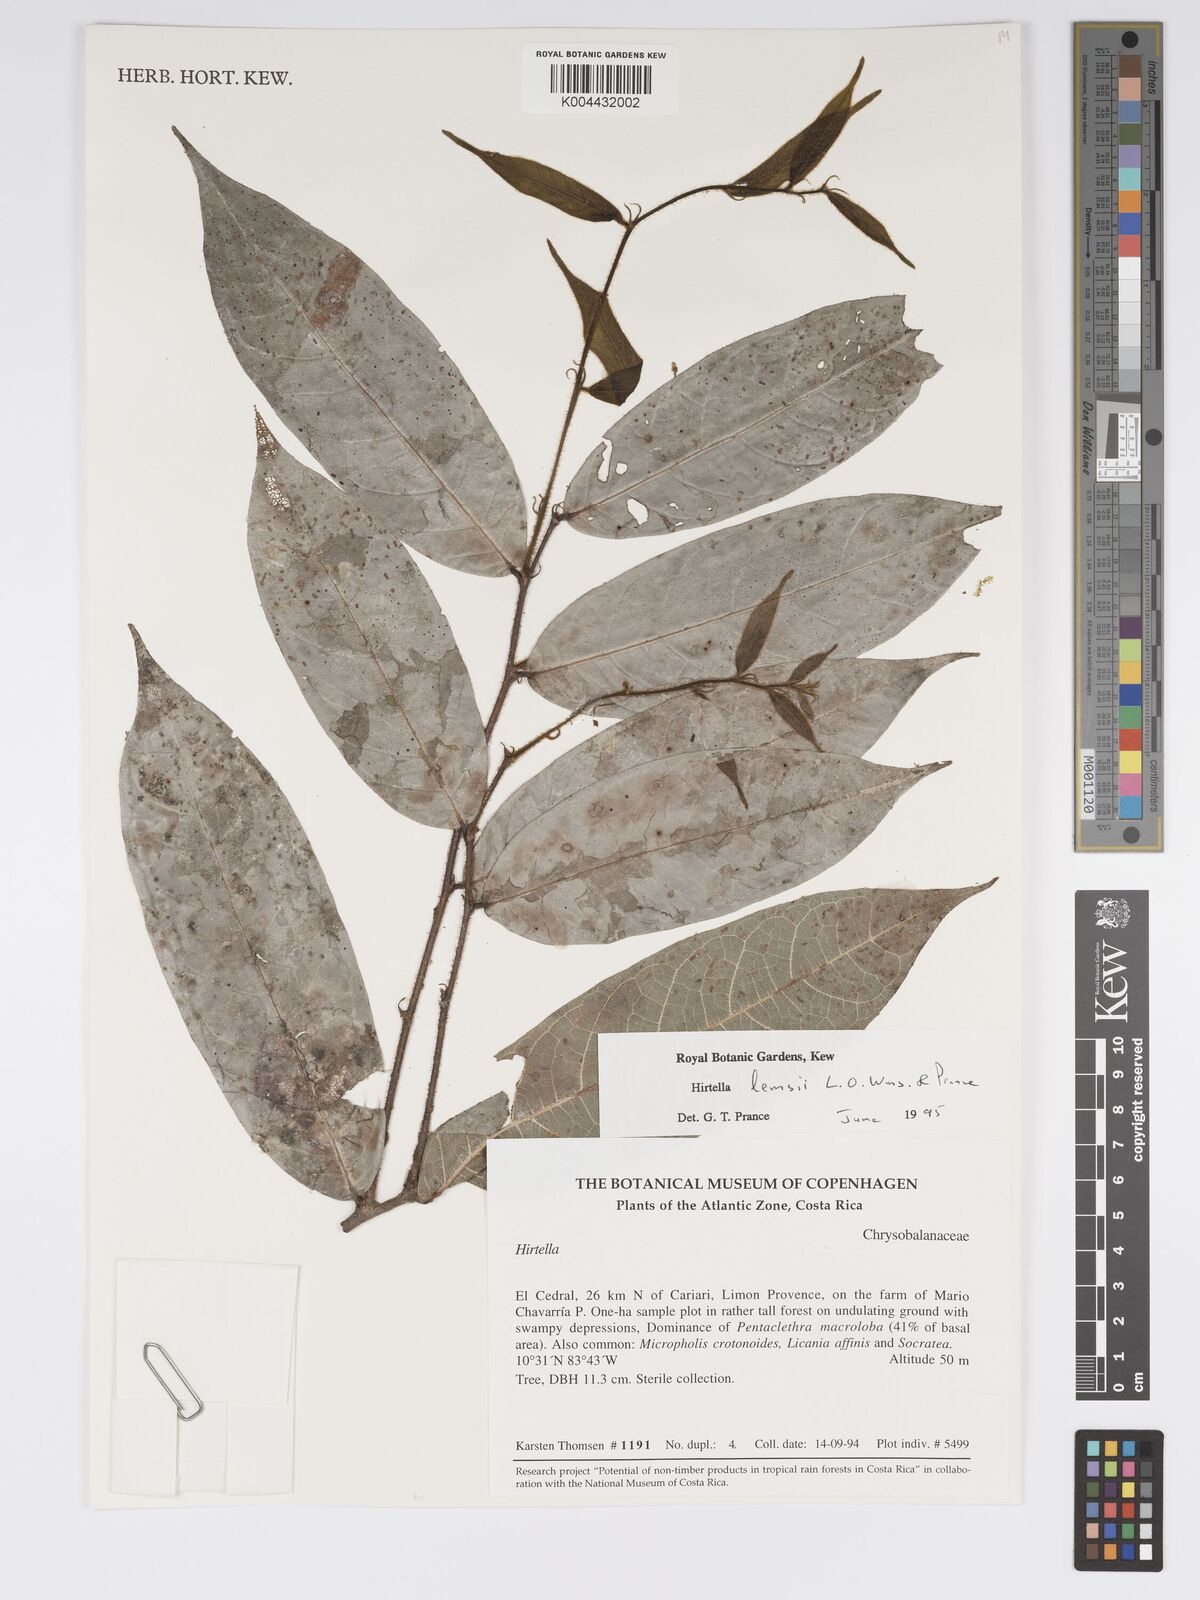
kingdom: Plantae
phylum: Tracheophyta
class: Magnoliopsida
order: Malpighiales
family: Chrysobalanaceae
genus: Hirtella
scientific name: Hirtella lemsii
